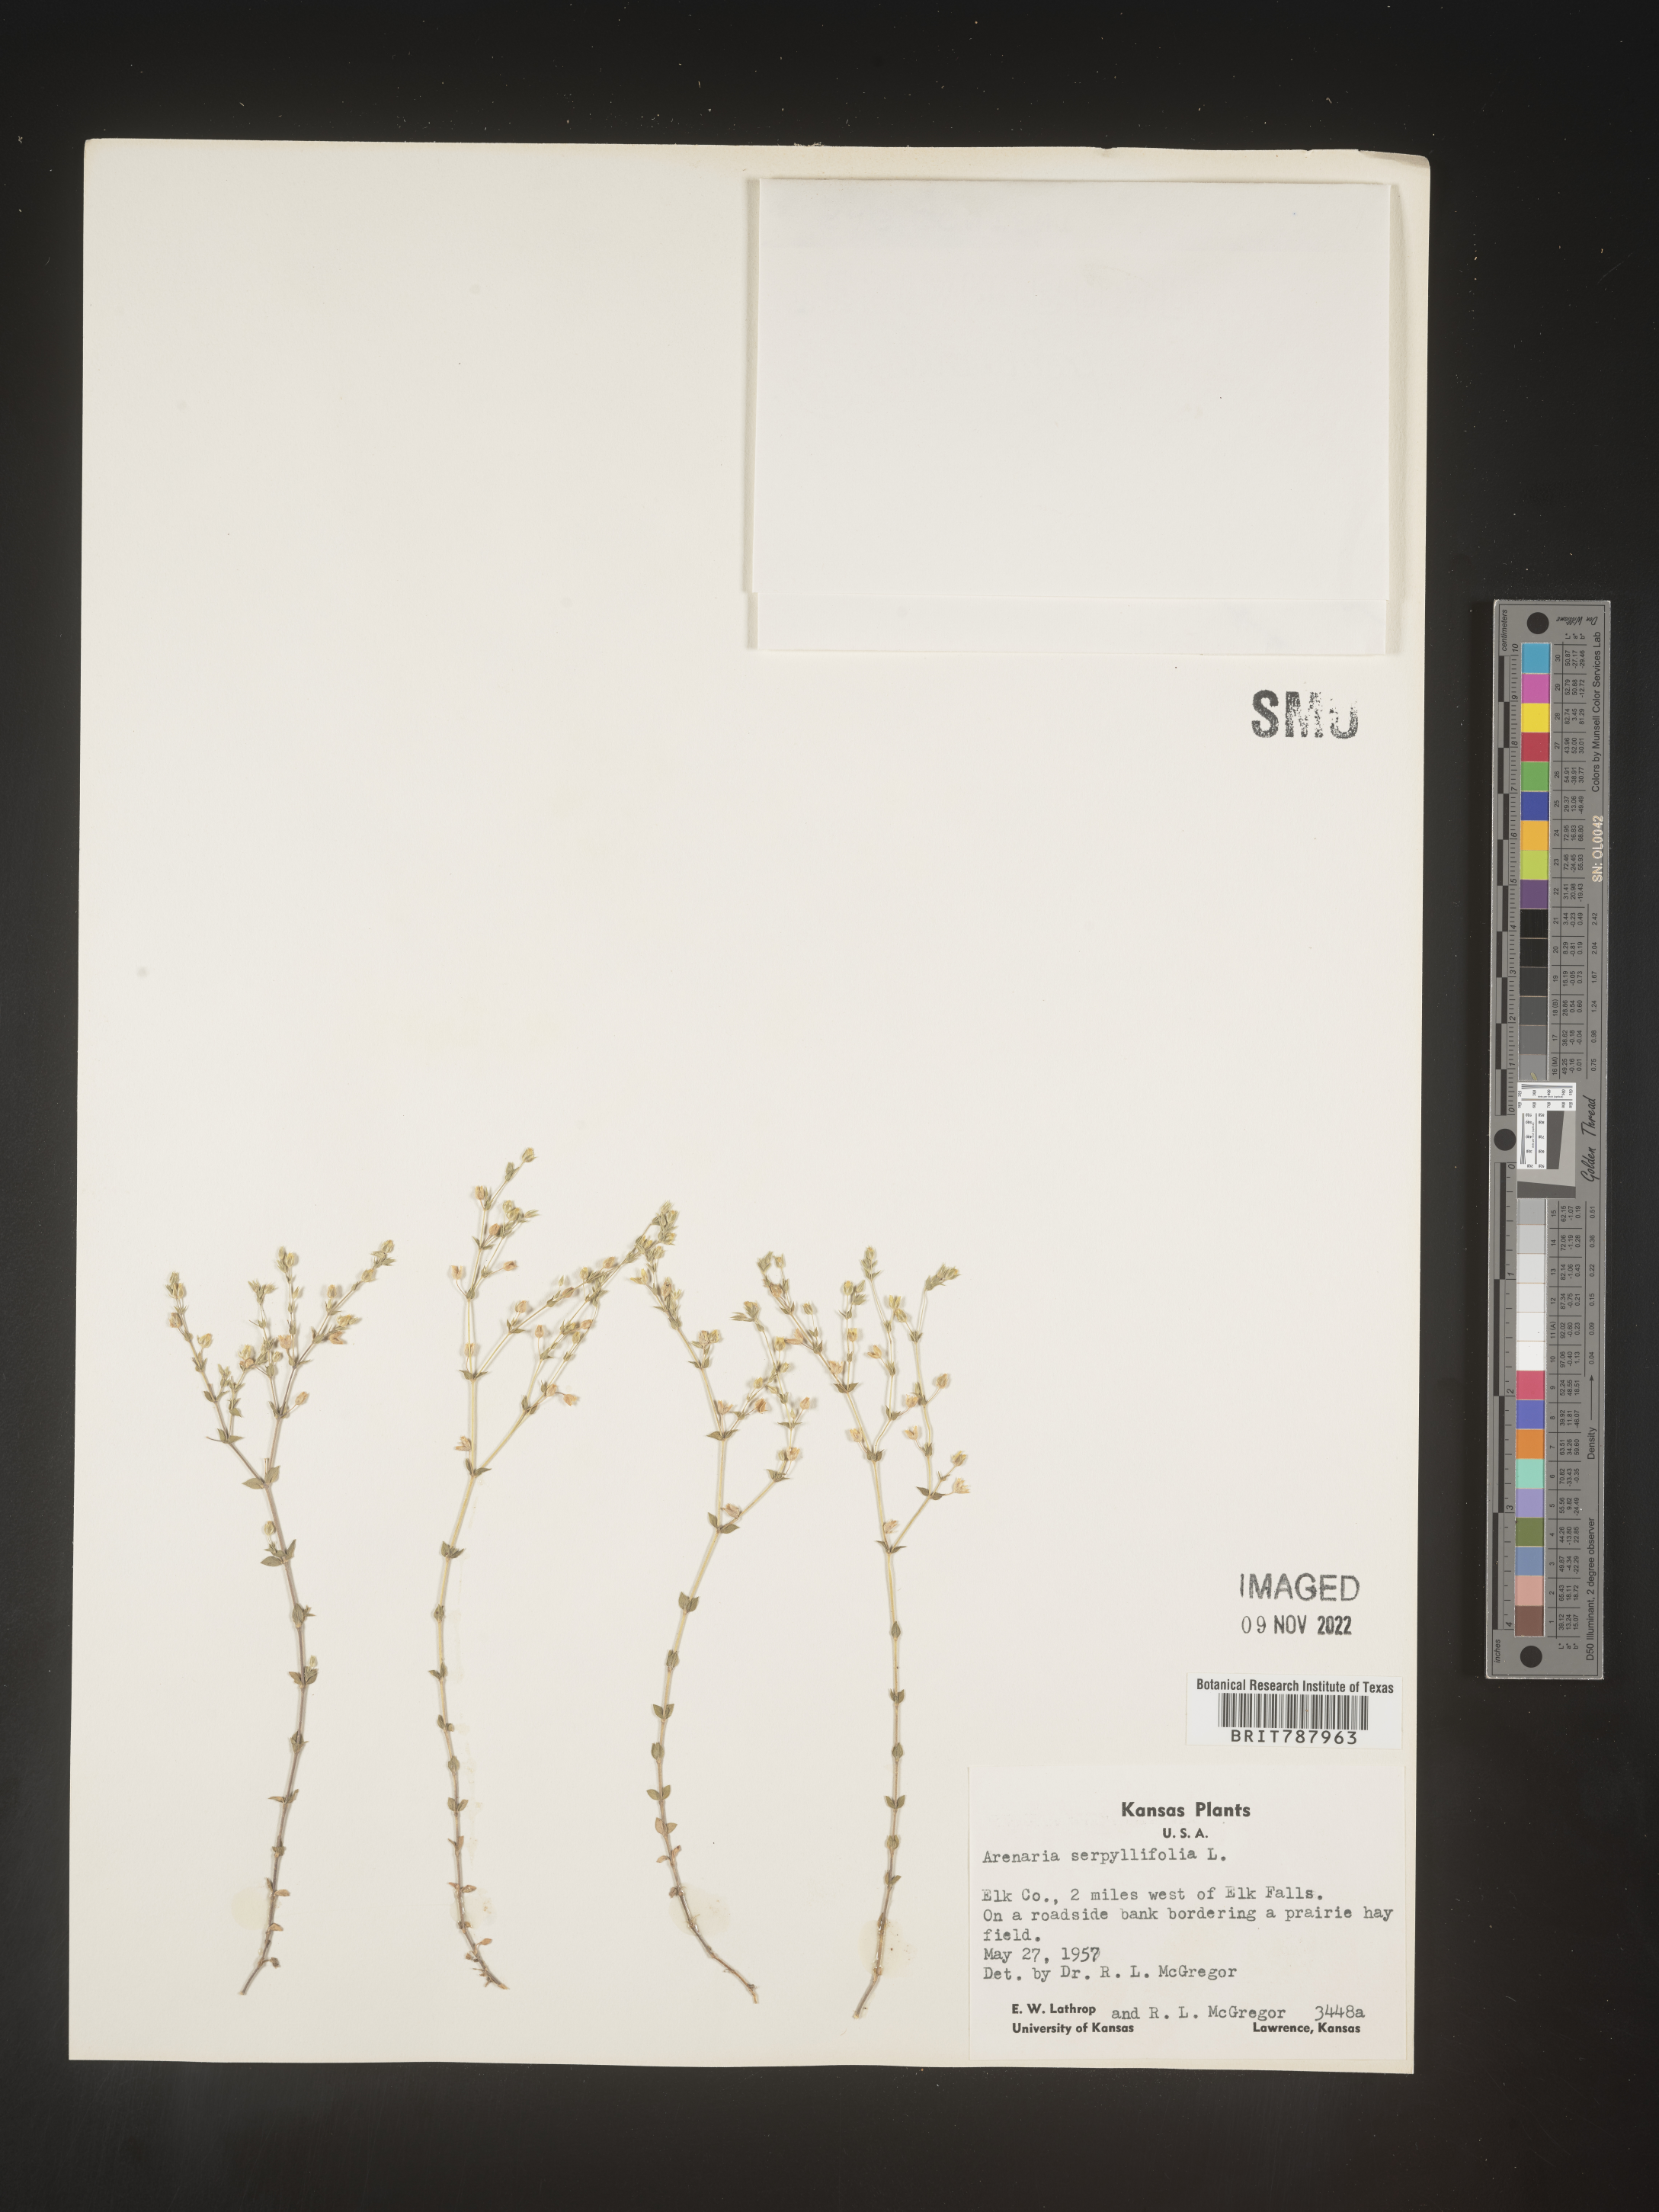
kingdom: Plantae
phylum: Tracheophyta
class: Magnoliopsida
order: Caryophyllales
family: Caryophyllaceae
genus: Arenaria
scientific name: Arenaria serpyllifolia
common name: Thyme-leaved sandwort
